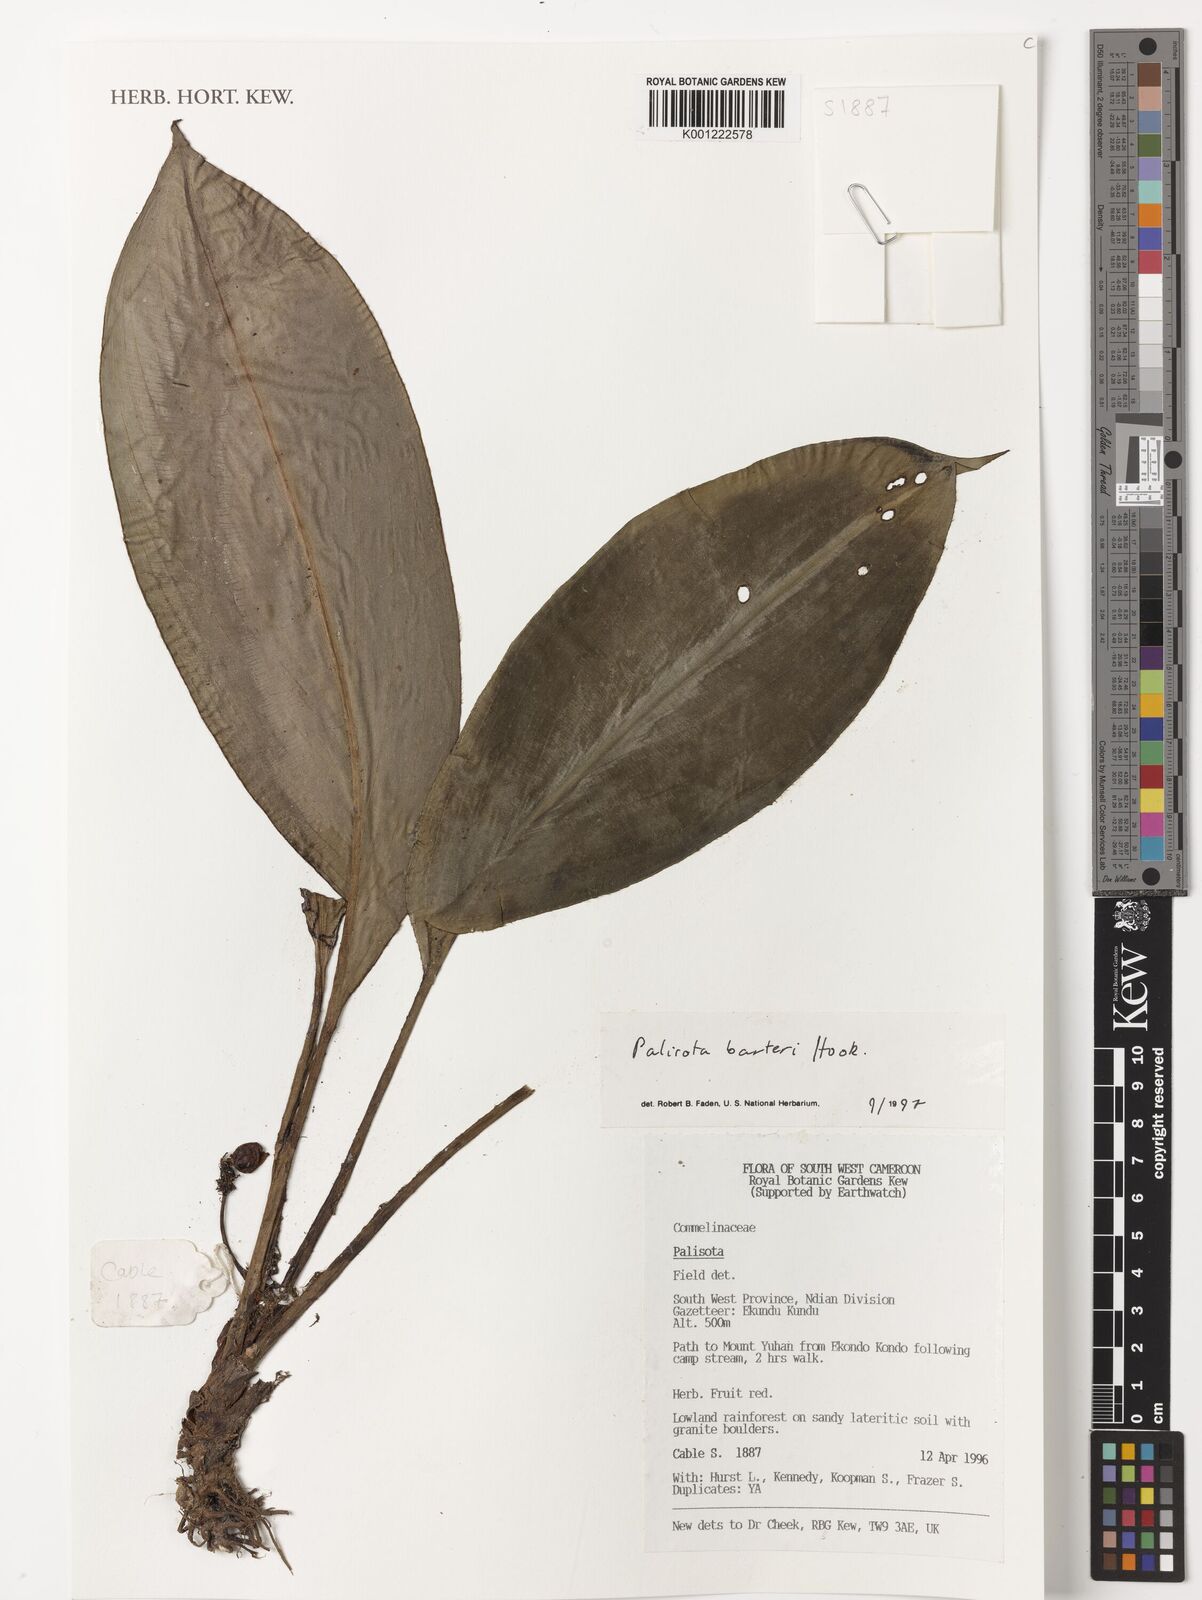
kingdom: Plantae
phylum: Tracheophyta
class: Liliopsida
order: Commelinales
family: Commelinaceae
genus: Palisota
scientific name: Palisota barteri
